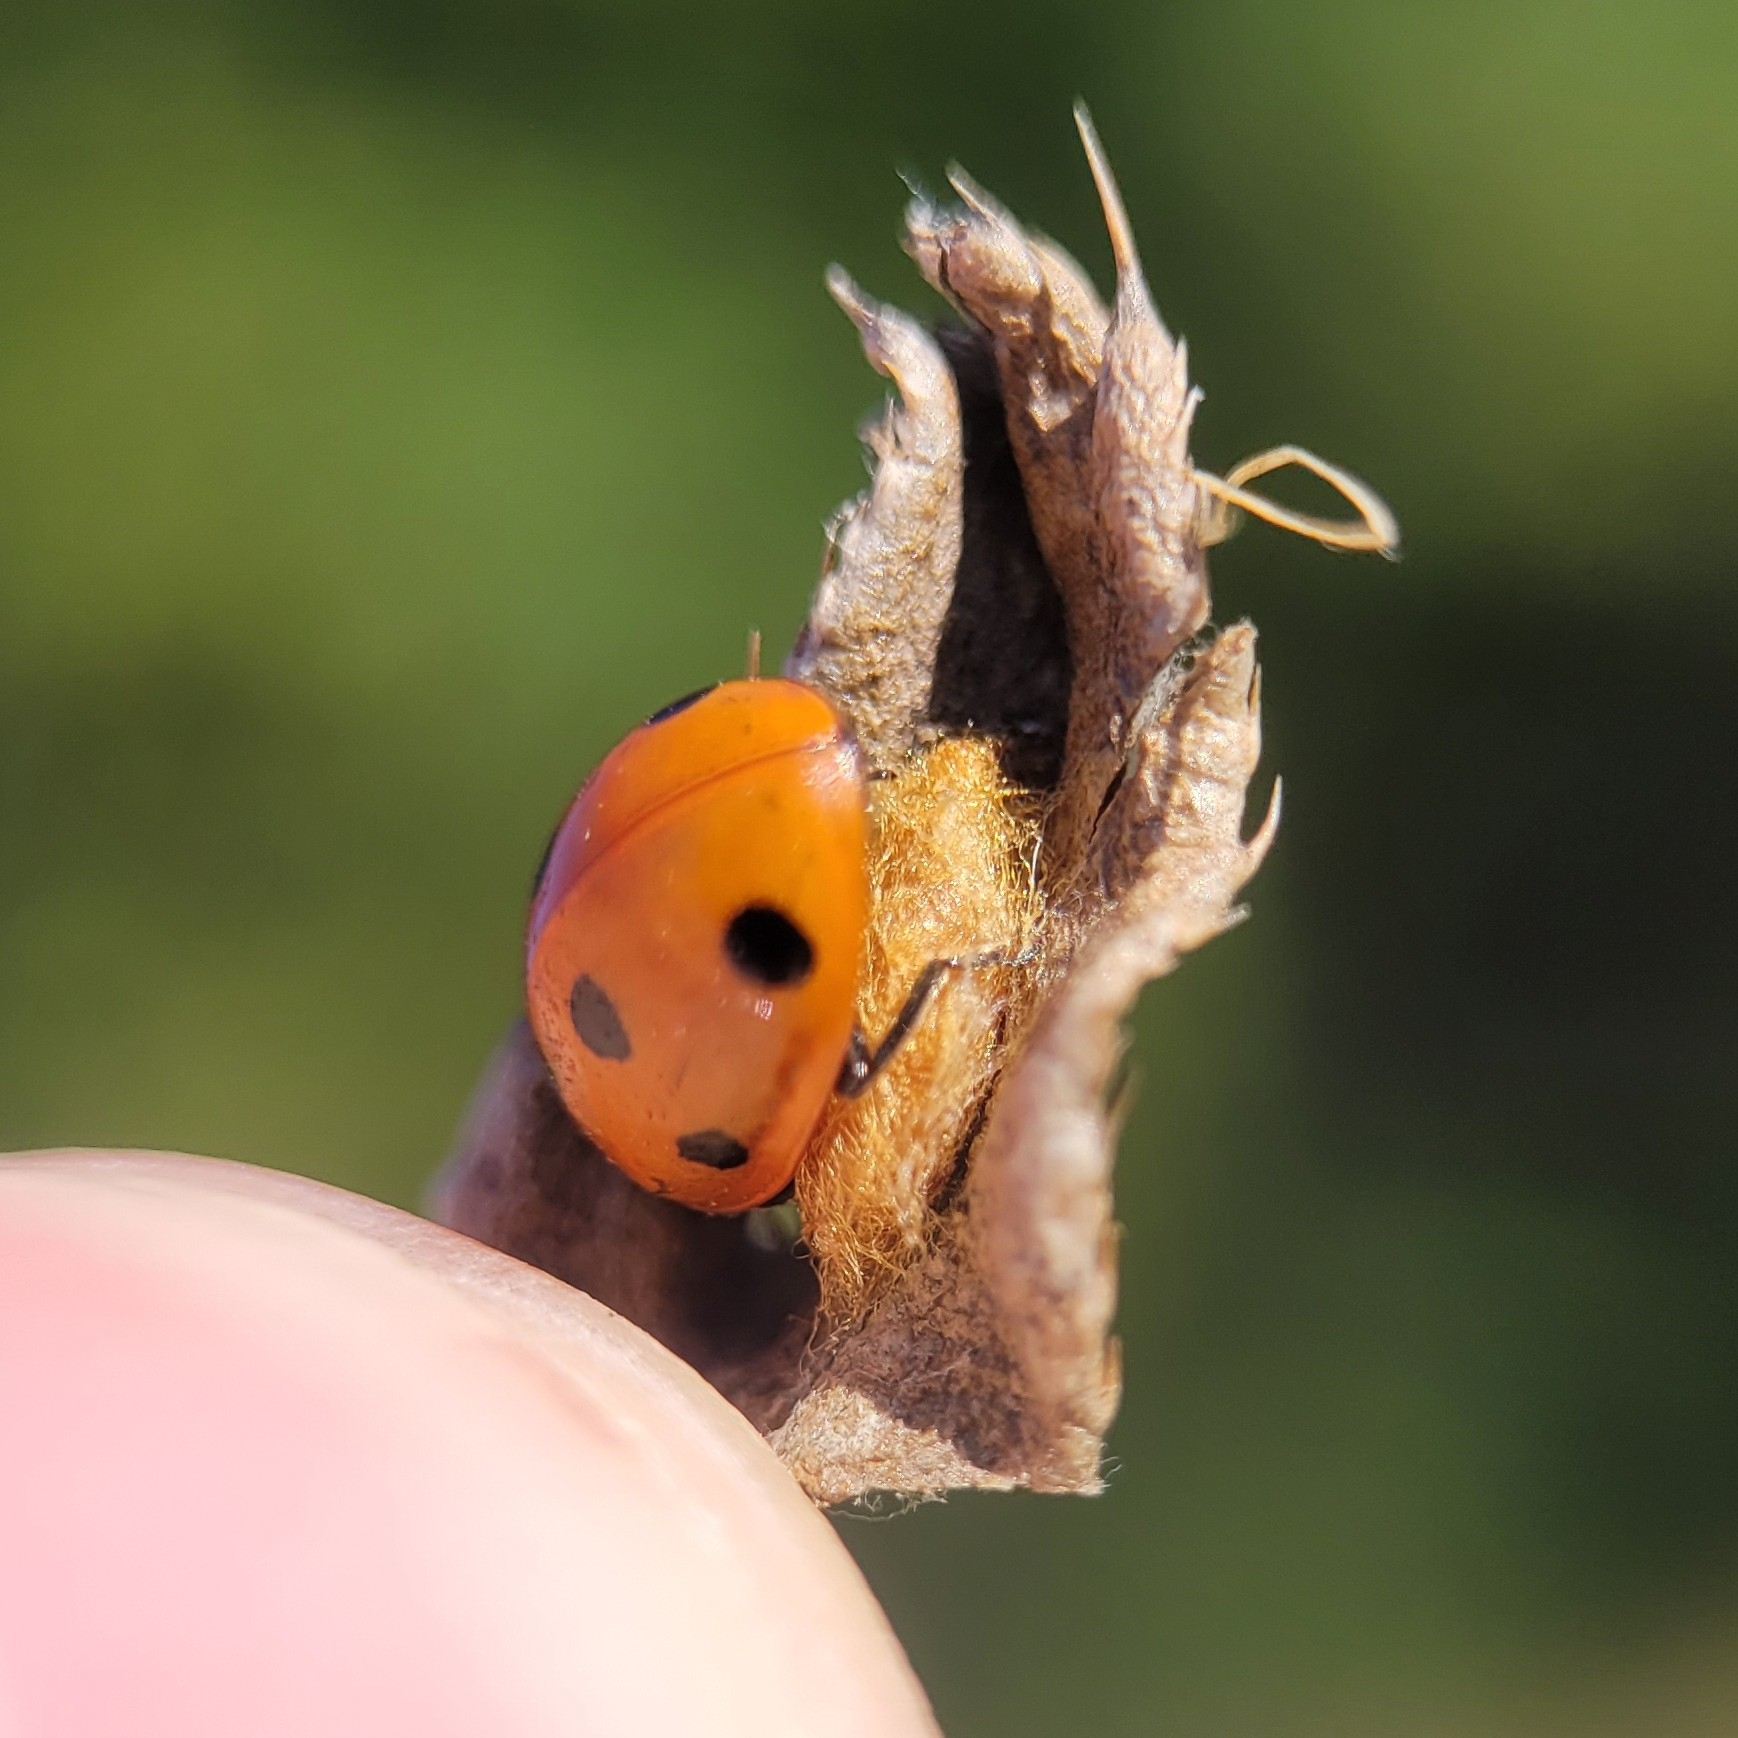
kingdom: Animalia
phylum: Arthropoda
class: Insecta
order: Hymenoptera
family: Braconidae
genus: Dinocampus
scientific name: Dinocampus coccinellae
